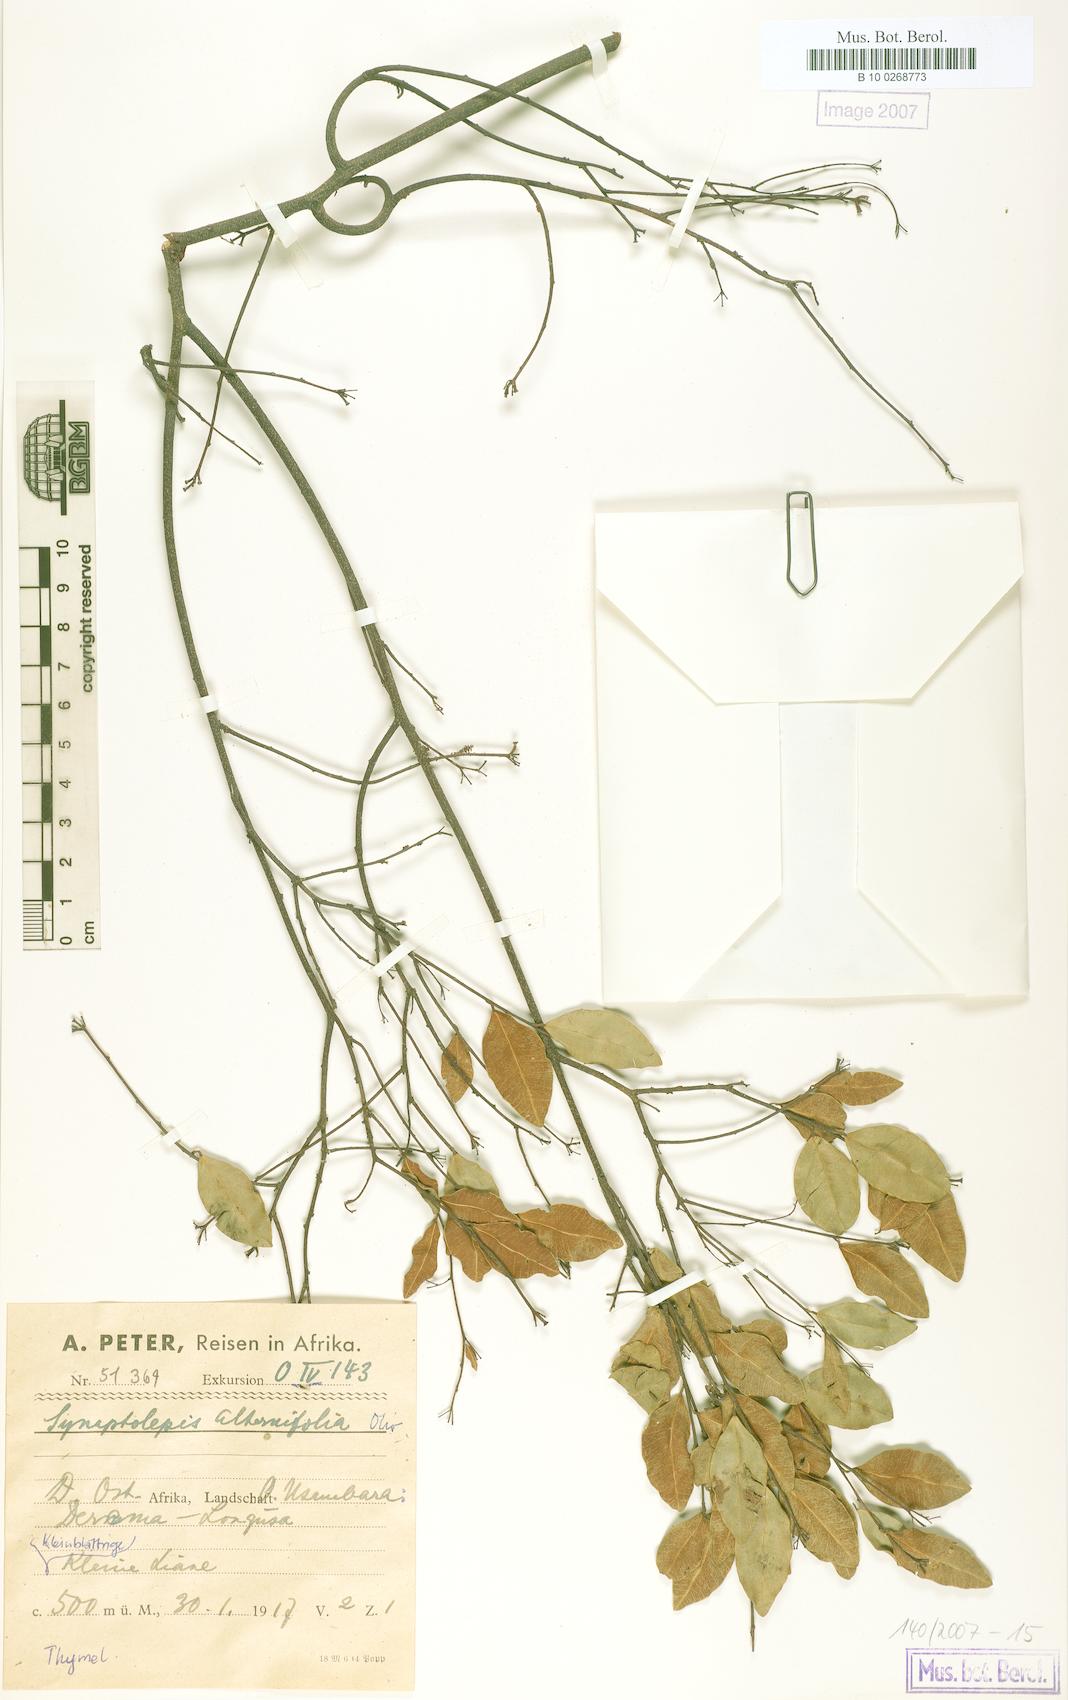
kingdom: Plantae
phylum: Tracheophyta
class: Magnoliopsida
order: Malvales
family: Thymelaeaceae
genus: Synaptolepis
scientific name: Synaptolepis alternifolia
